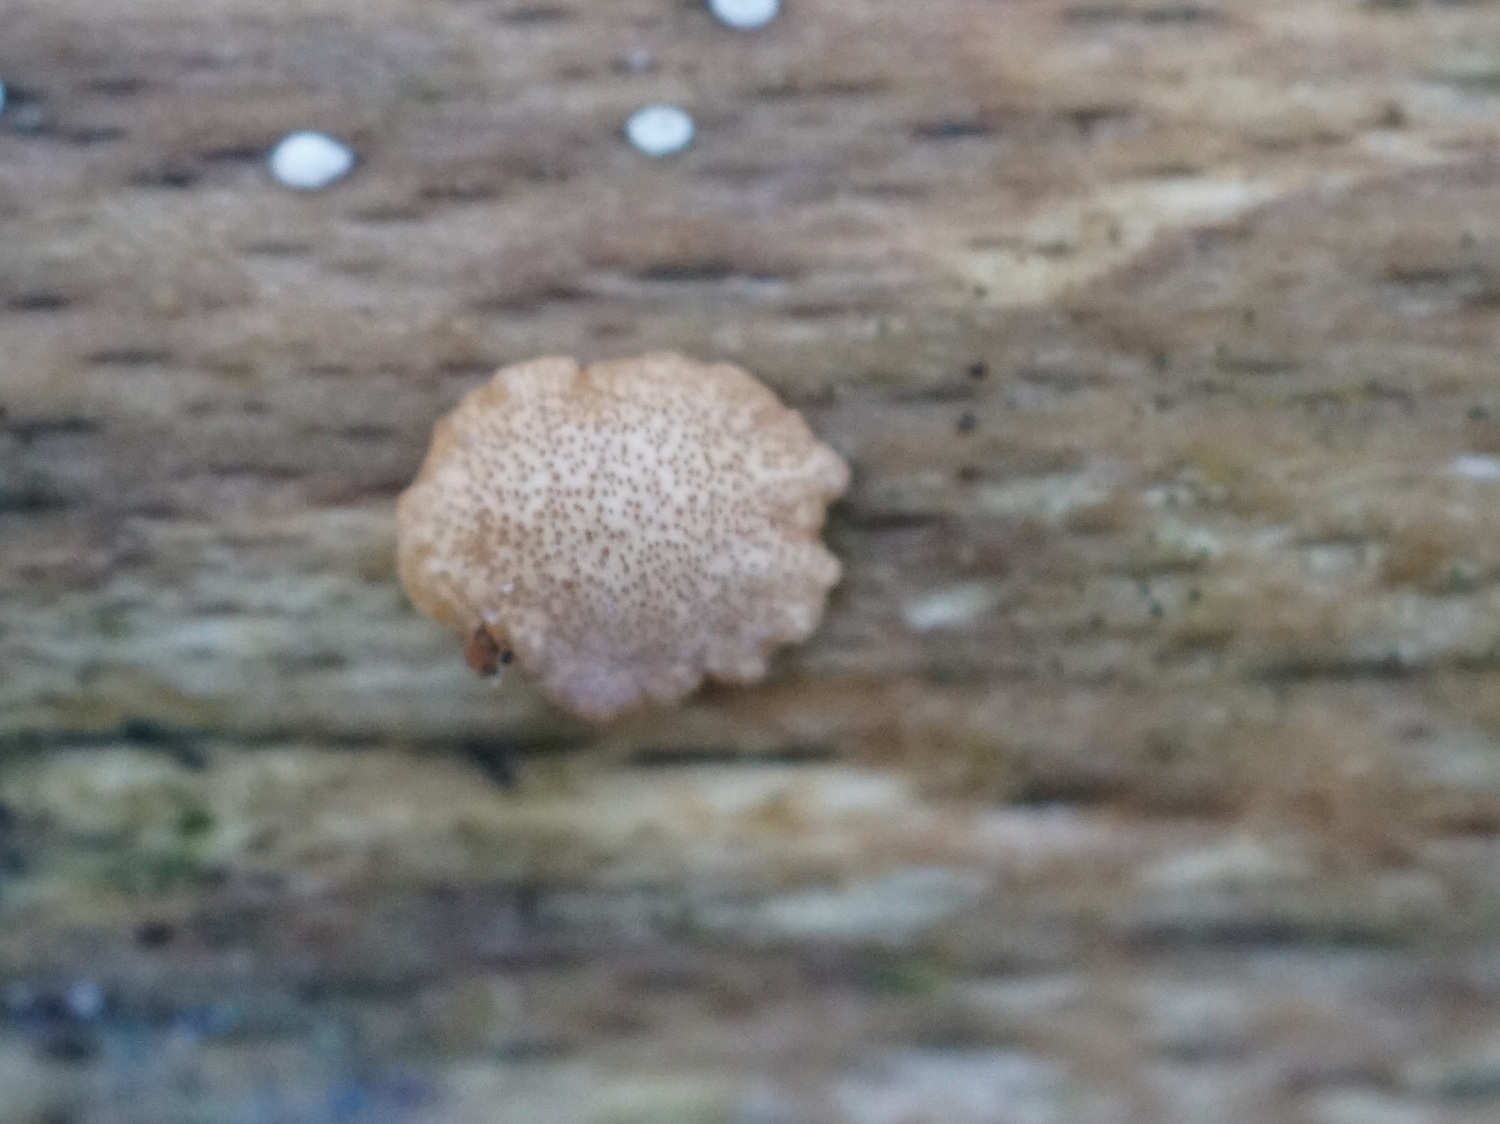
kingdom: Fungi
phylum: Ascomycota
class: Sordariomycetes
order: Hypocreales
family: Hypocreaceae
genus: Trichoderma
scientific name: Trichoderma europaeum
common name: rosabrun kødkerne
